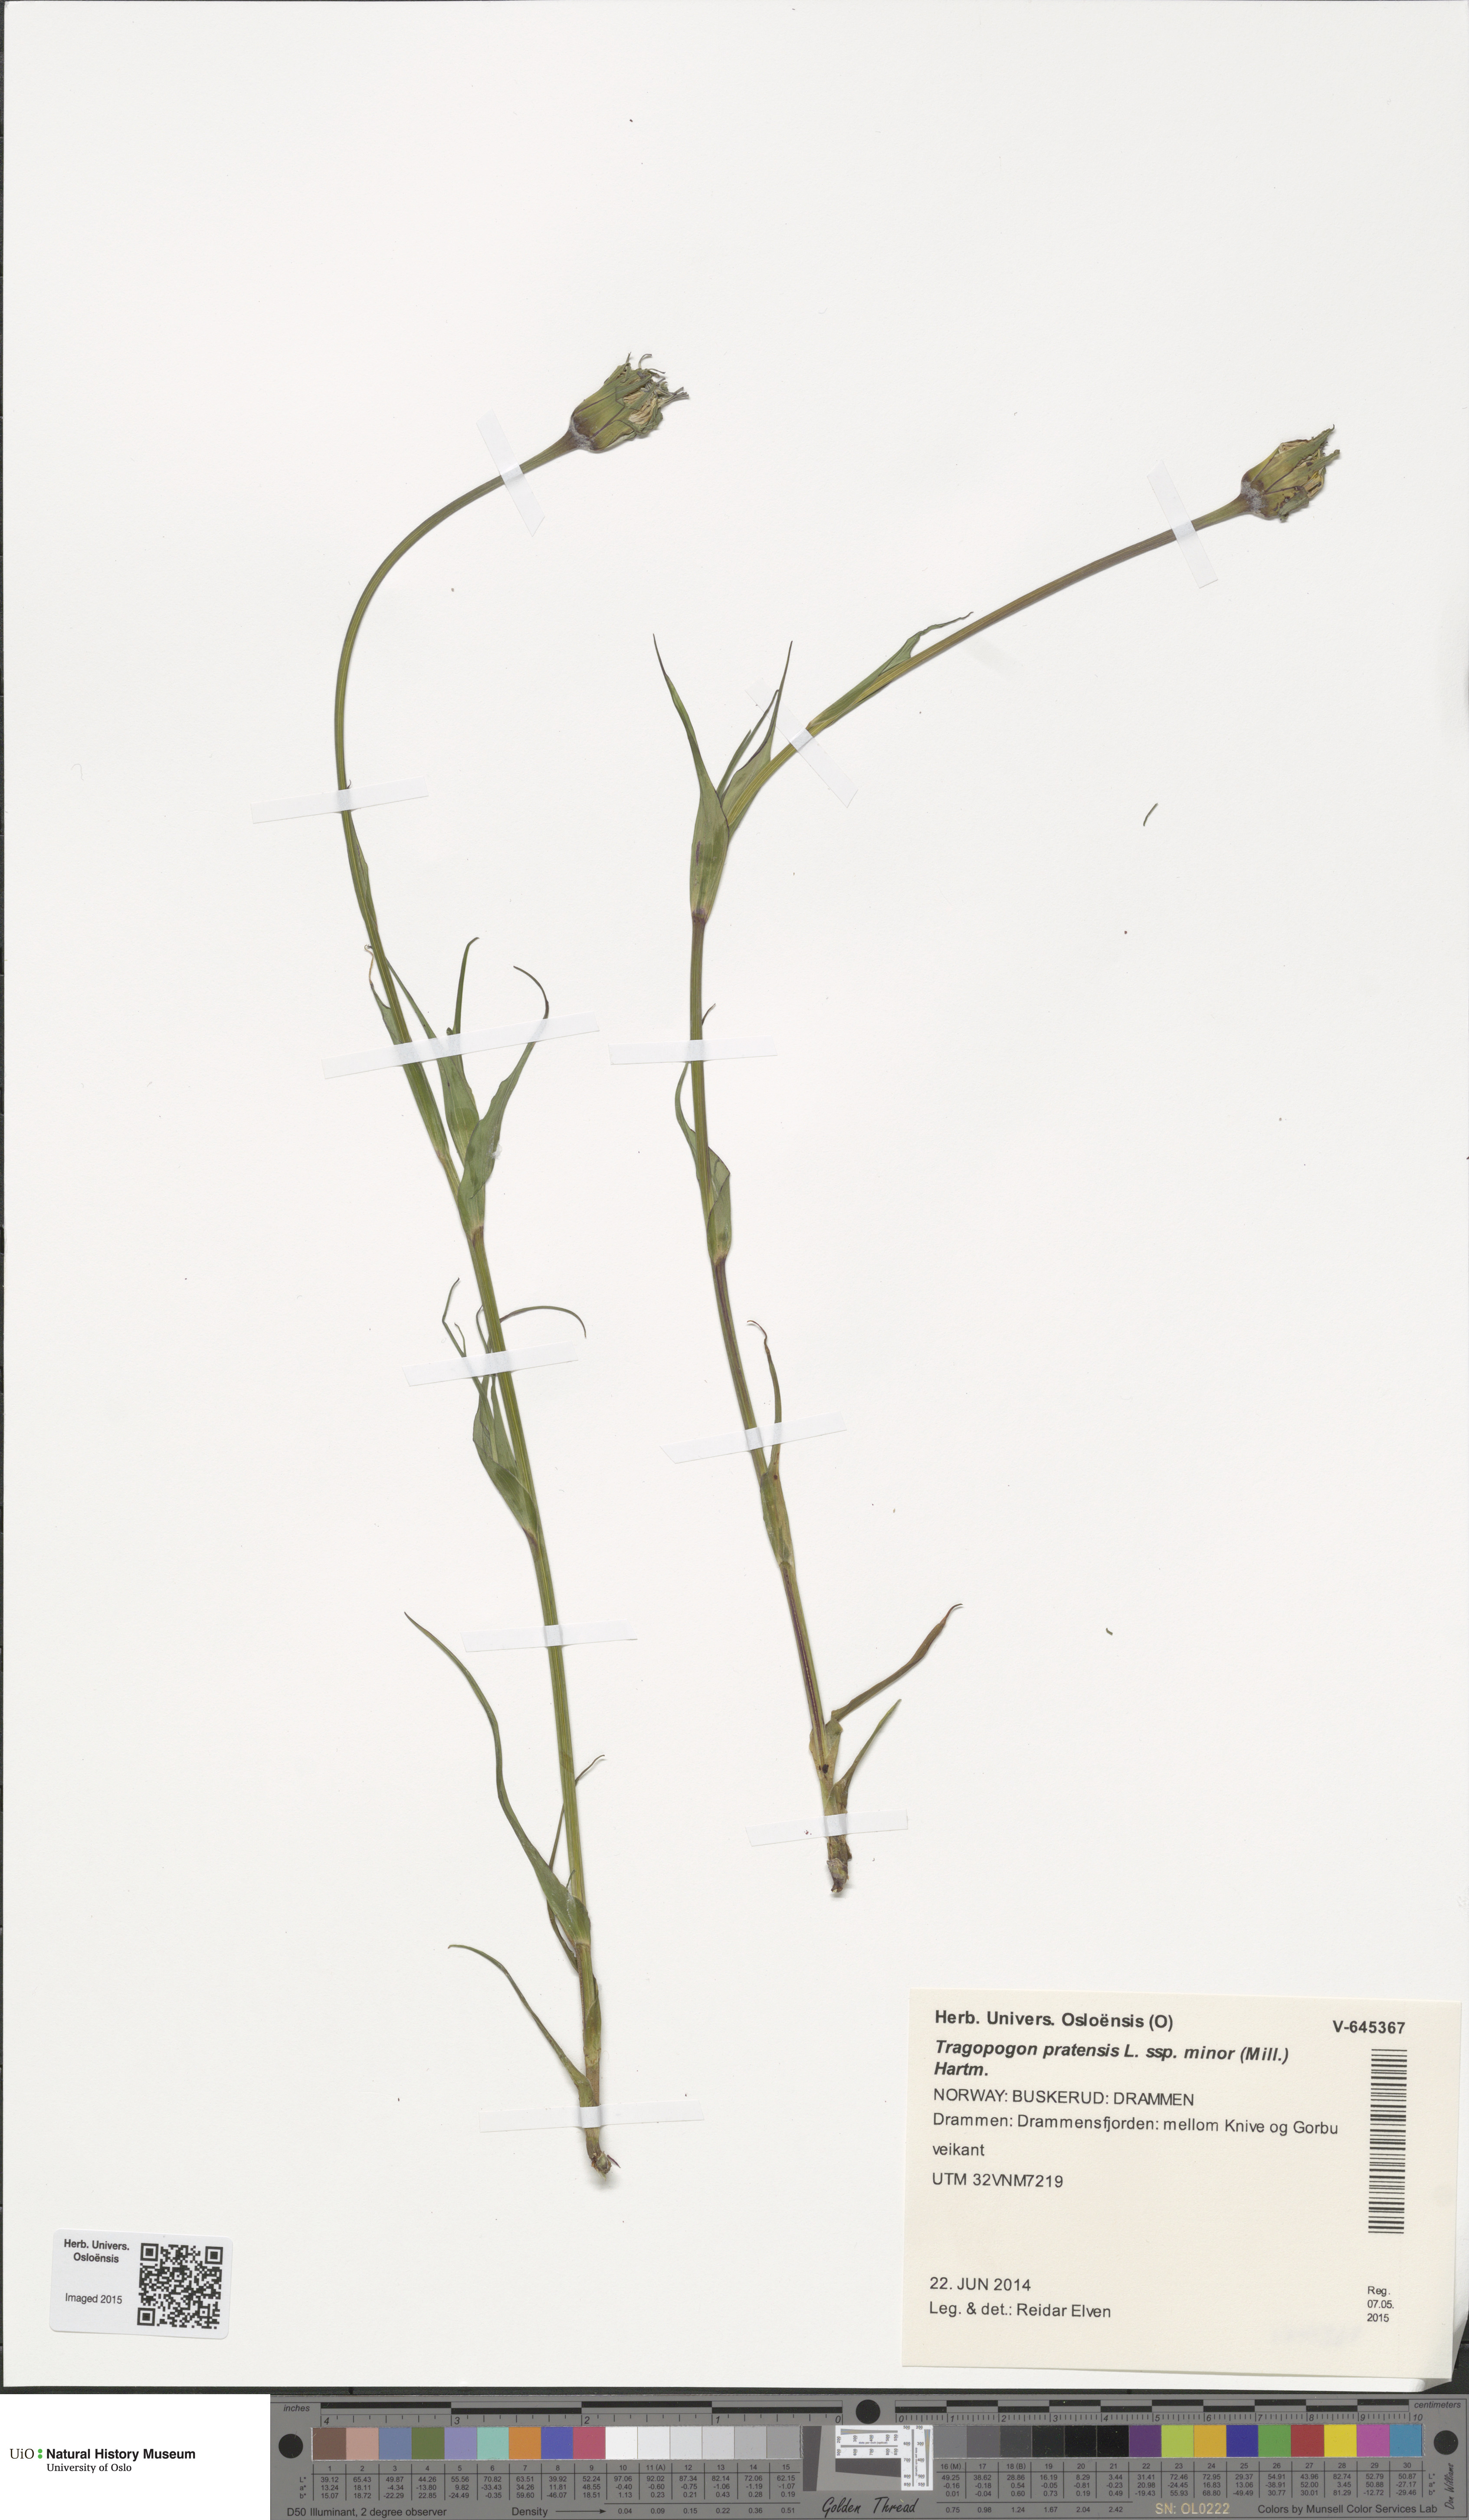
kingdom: Plantae
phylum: Tracheophyta
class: Magnoliopsida
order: Asterales
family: Asteraceae
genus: Tragopogon
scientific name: Tragopogon minor
